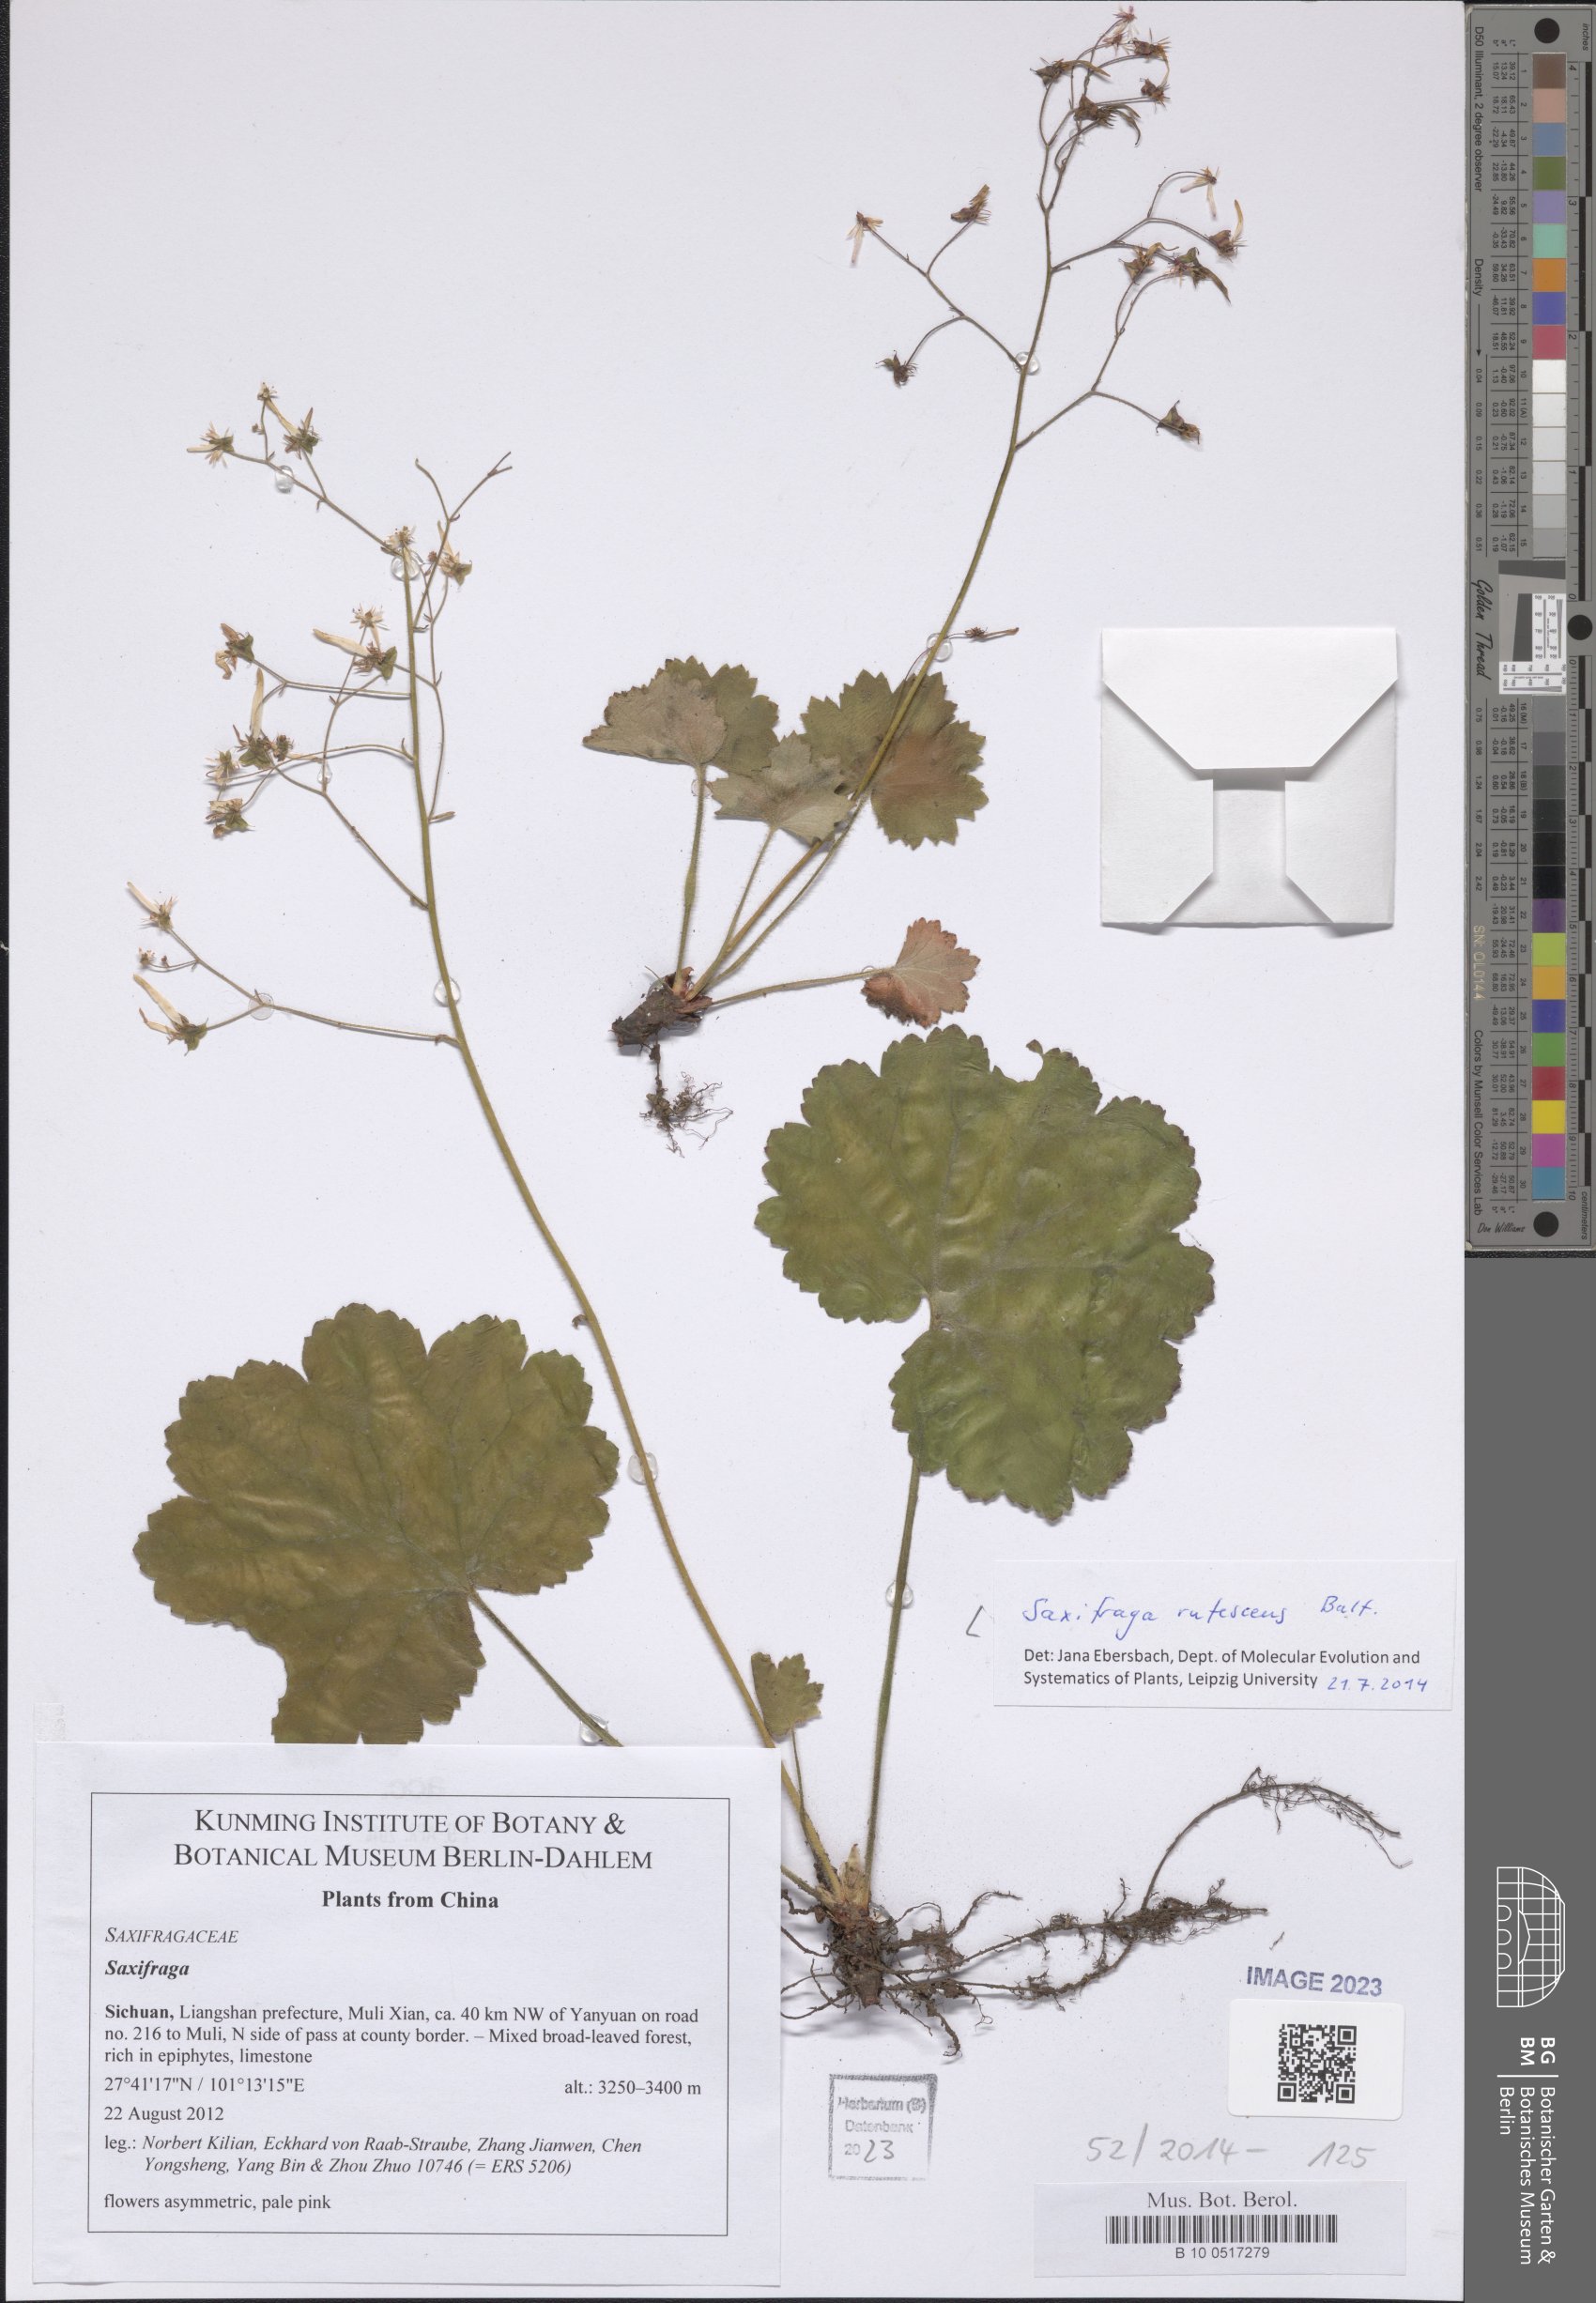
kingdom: Plantae
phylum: Tracheophyta
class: Magnoliopsida
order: Saxifragales
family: Saxifragaceae
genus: Saxifraga
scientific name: Saxifraga rufescens
